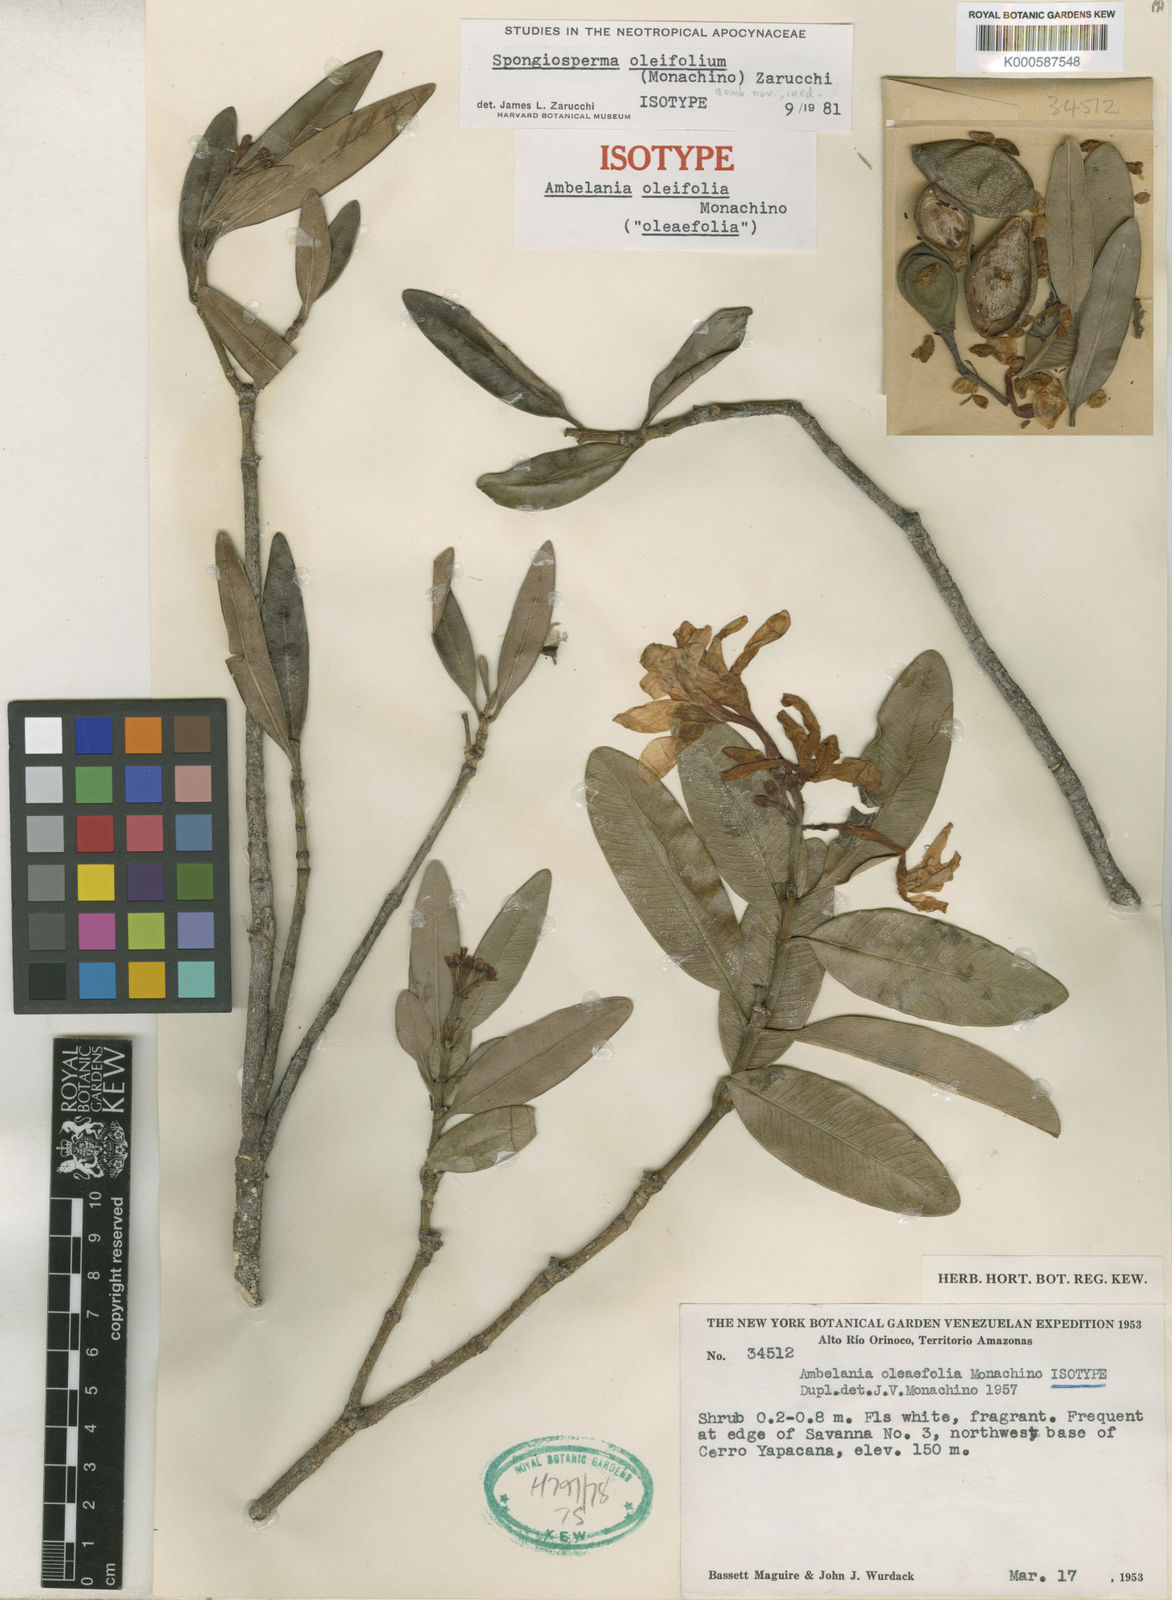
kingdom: Plantae
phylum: Tracheophyta
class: Magnoliopsida
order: Gentianales
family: Apocynaceae
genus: Spongiosperma
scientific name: Spongiosperma oleifolium
